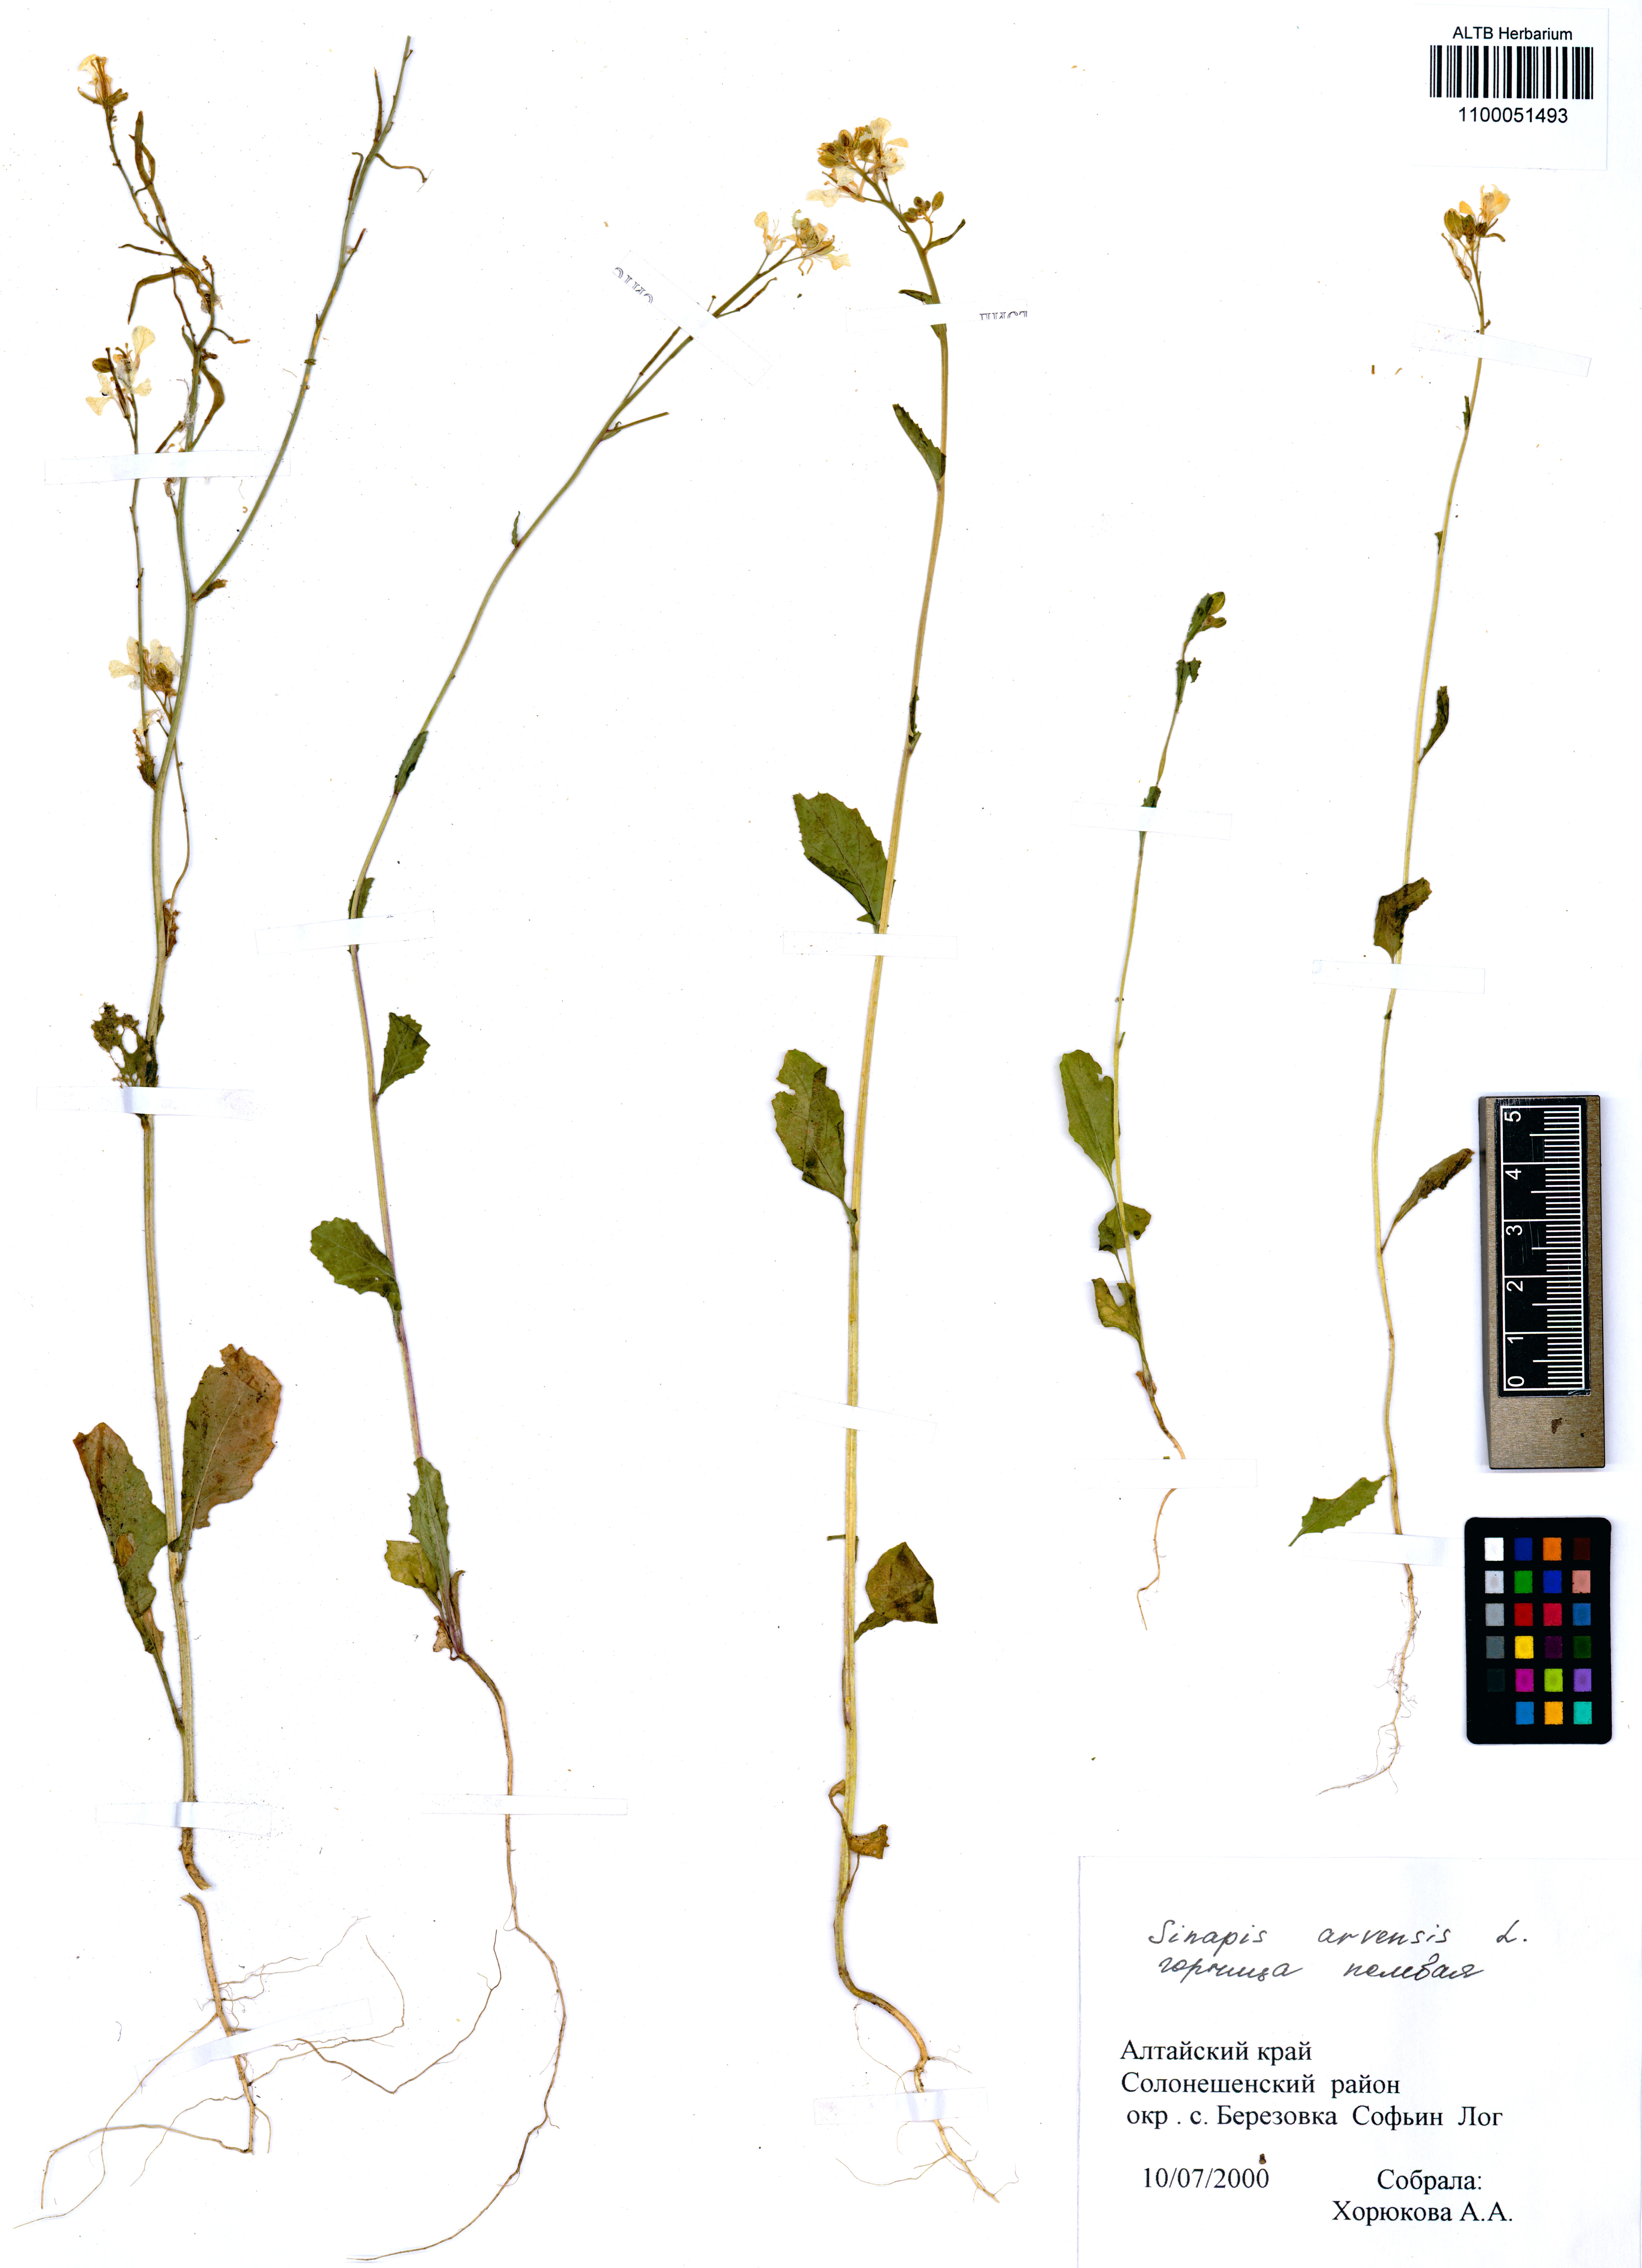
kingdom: Plantae
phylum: Tracheophyta
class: Magnoliopsida
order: Brassicales
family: Brassicaceae
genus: Sinapis
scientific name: Sinapis arvensis
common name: Charlock
